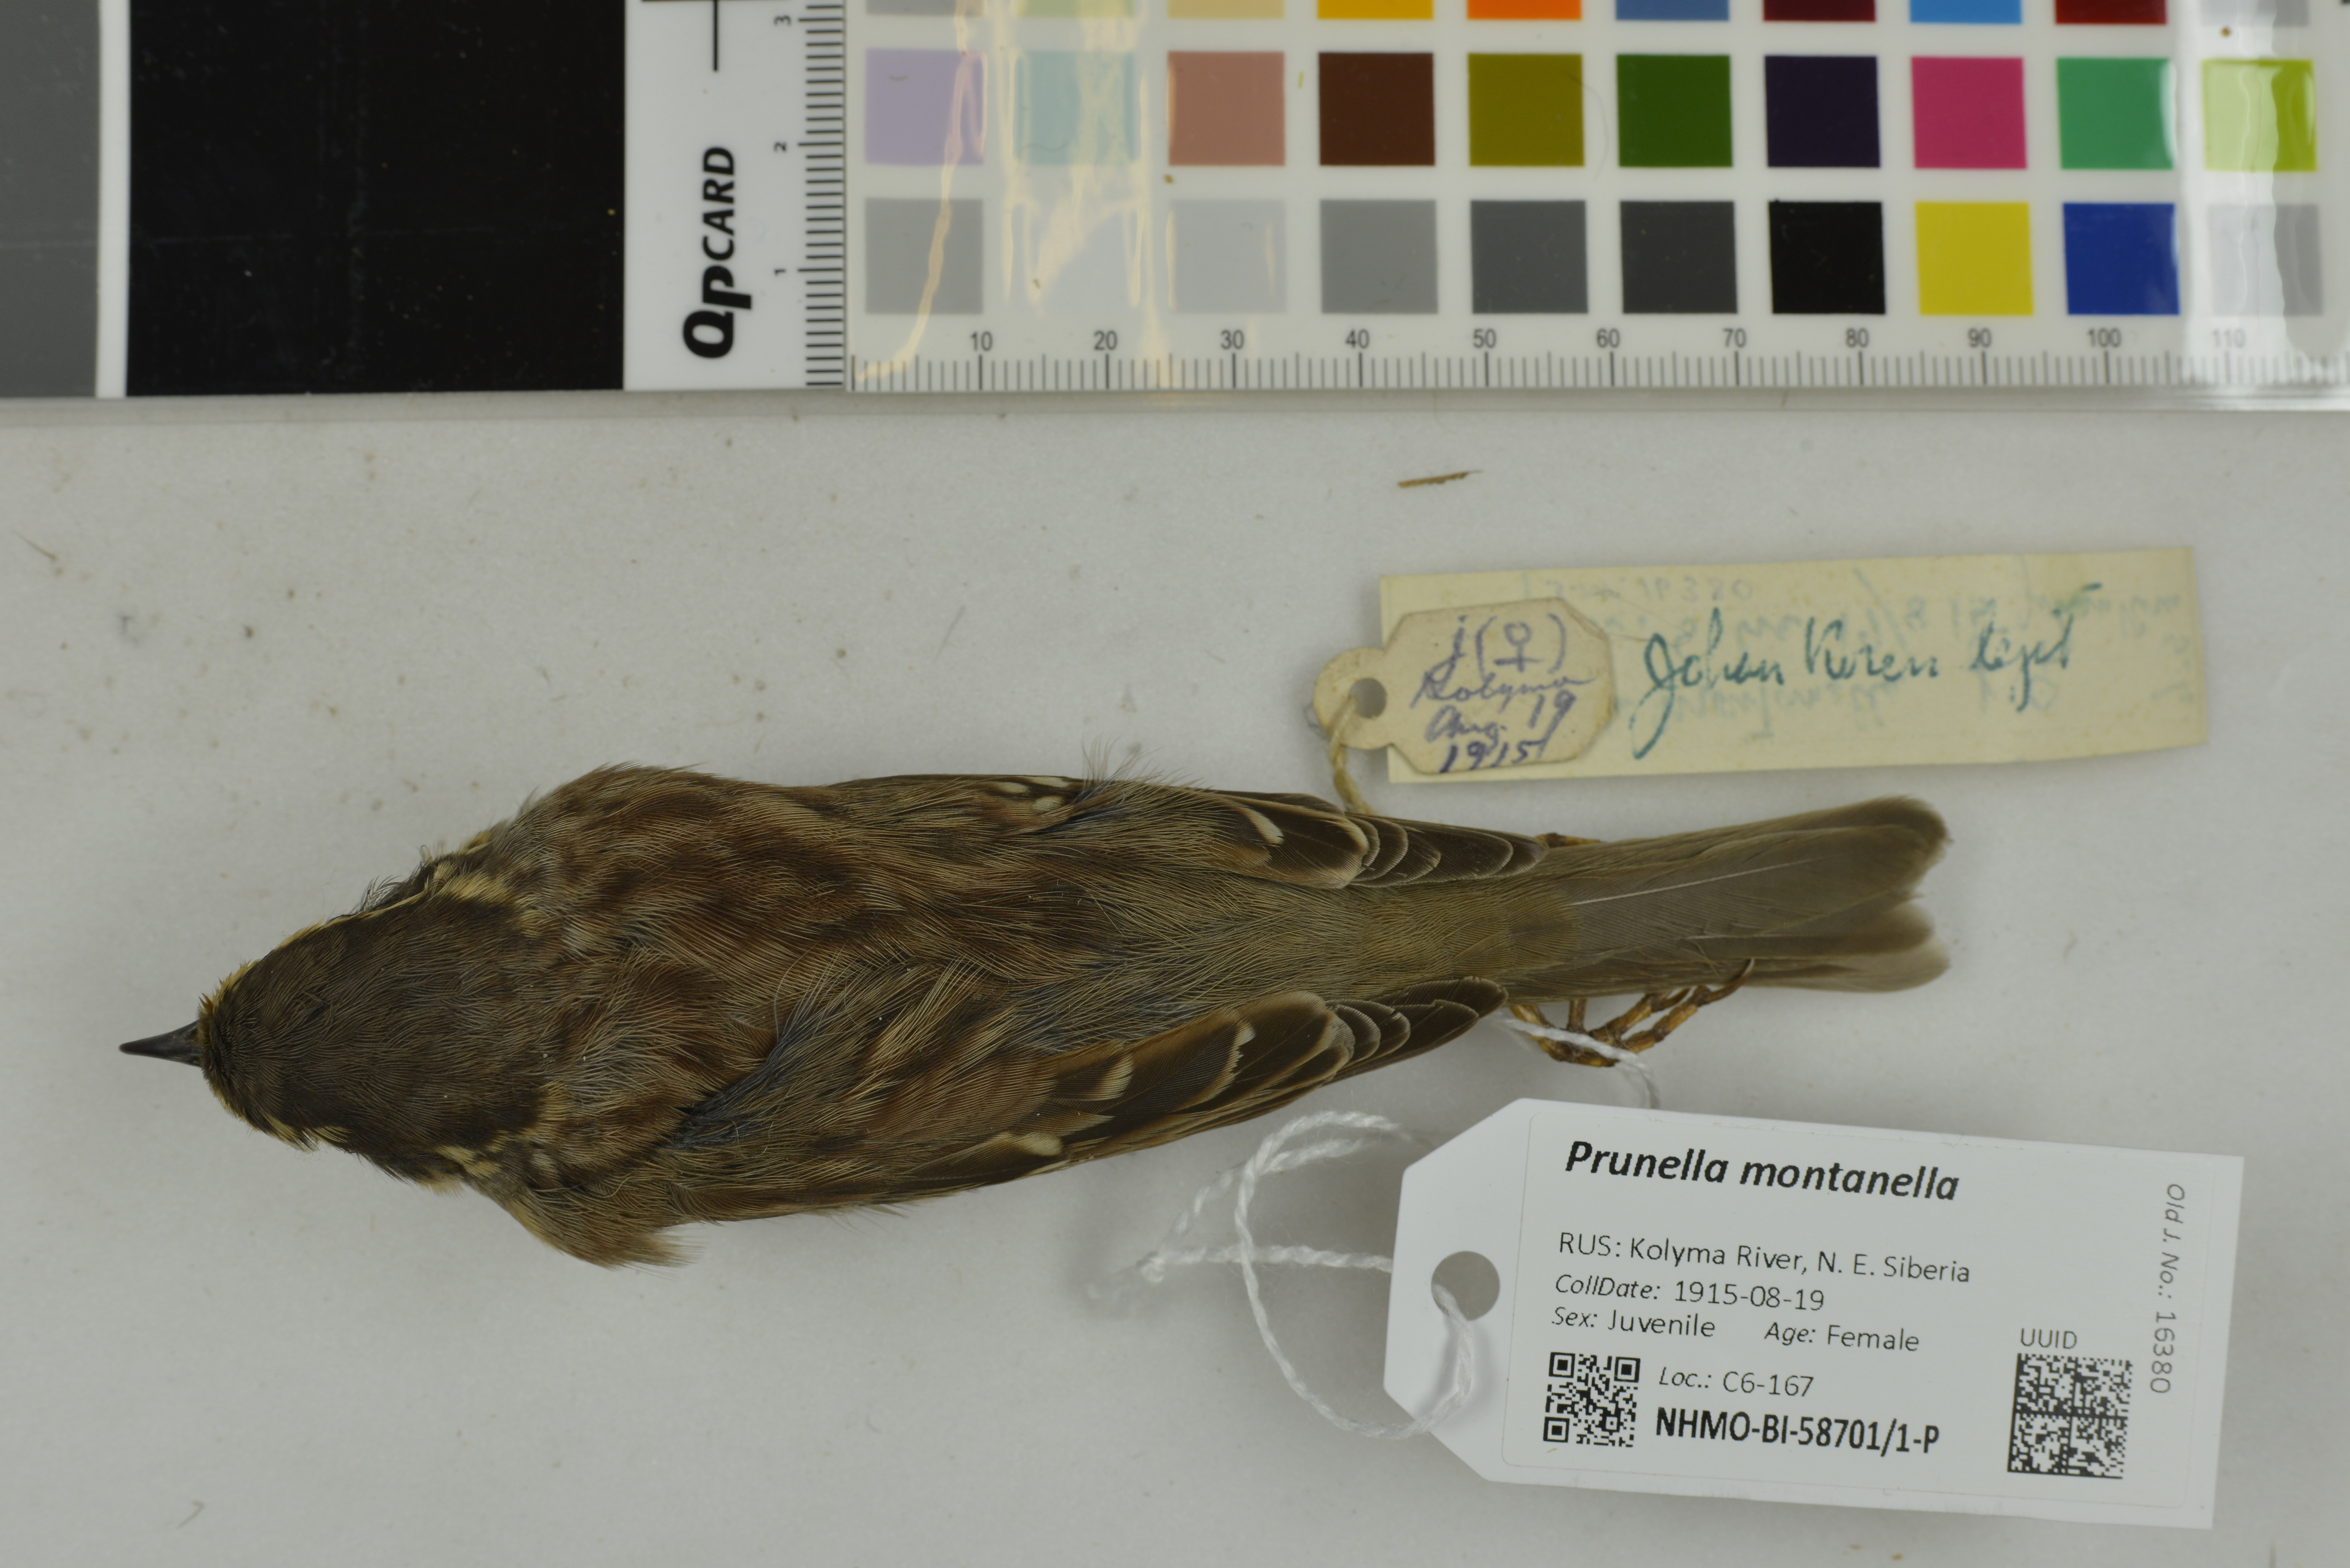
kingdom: Animalia
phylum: Chordata
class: Aves
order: Passeriformes
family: Prunellidae
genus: Prunella
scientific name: Prunella montanella
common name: Siberian accentor
